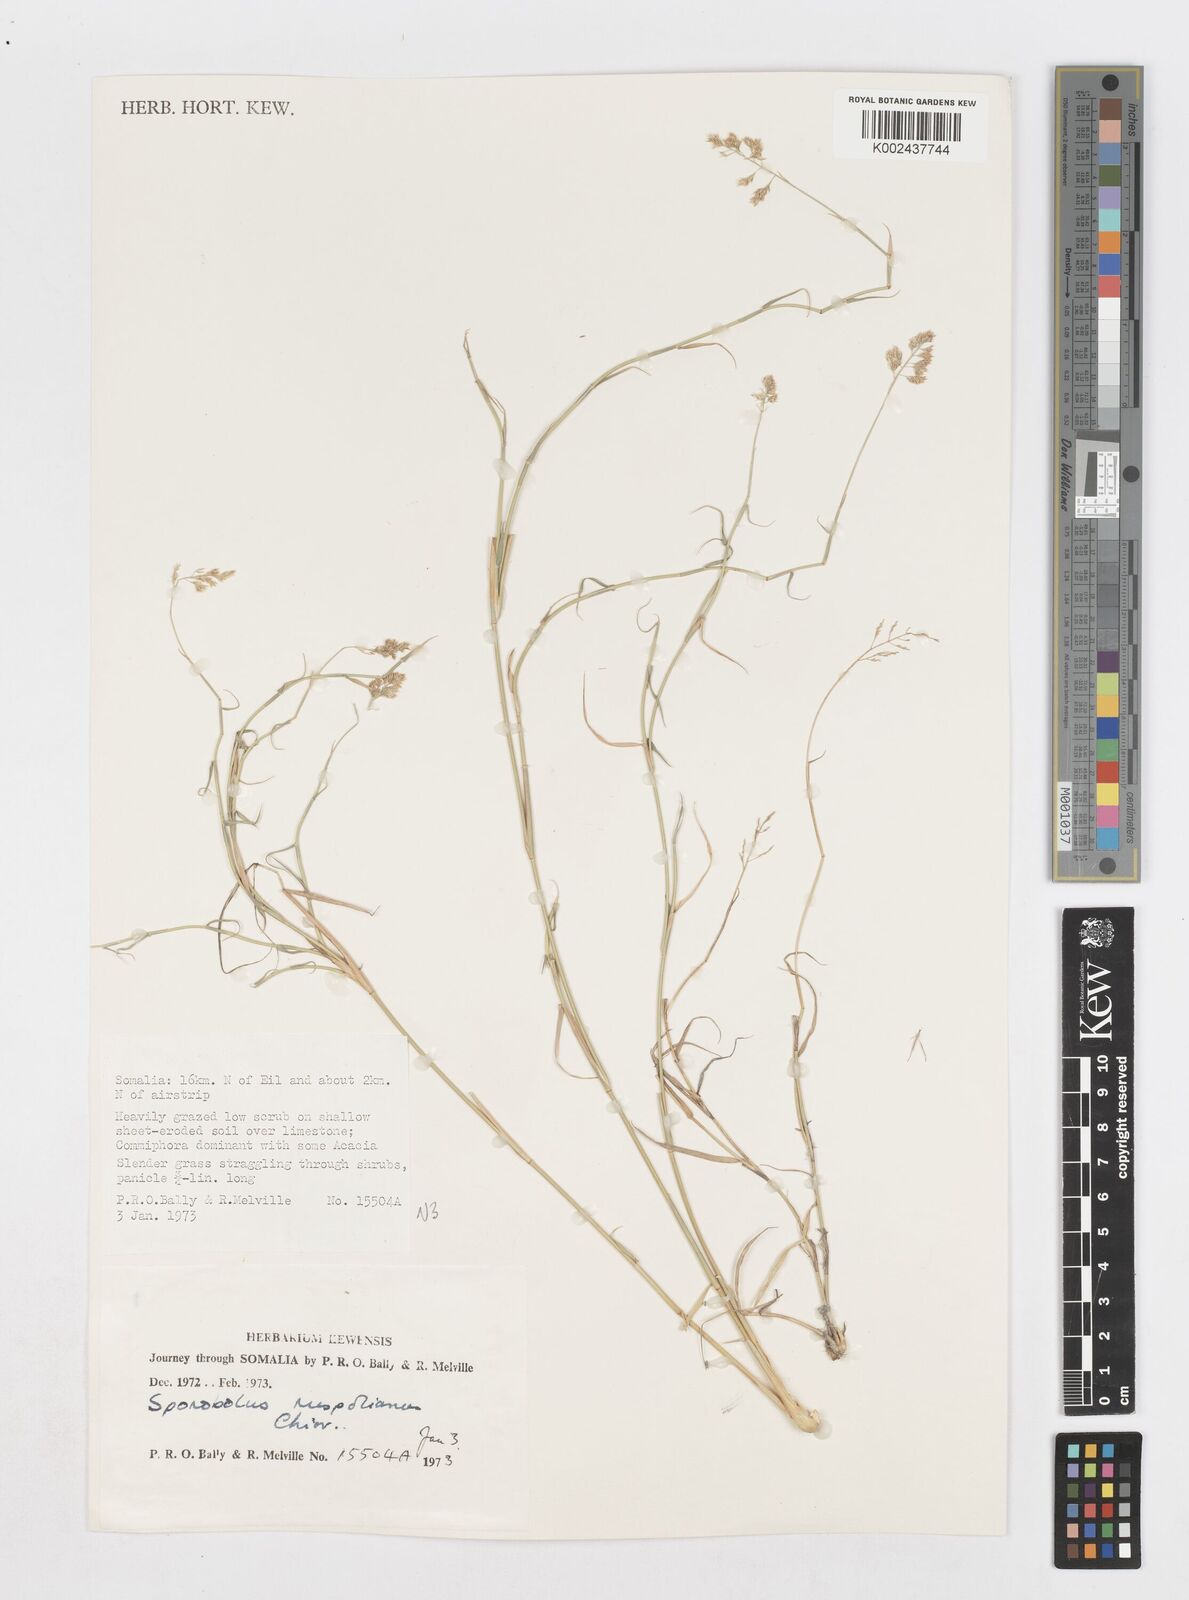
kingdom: Plantae
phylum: Tracheophyta
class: Liliopsida
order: Poales
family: Poaceae
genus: Sporobolus
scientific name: Sporobolus ruspolianus
